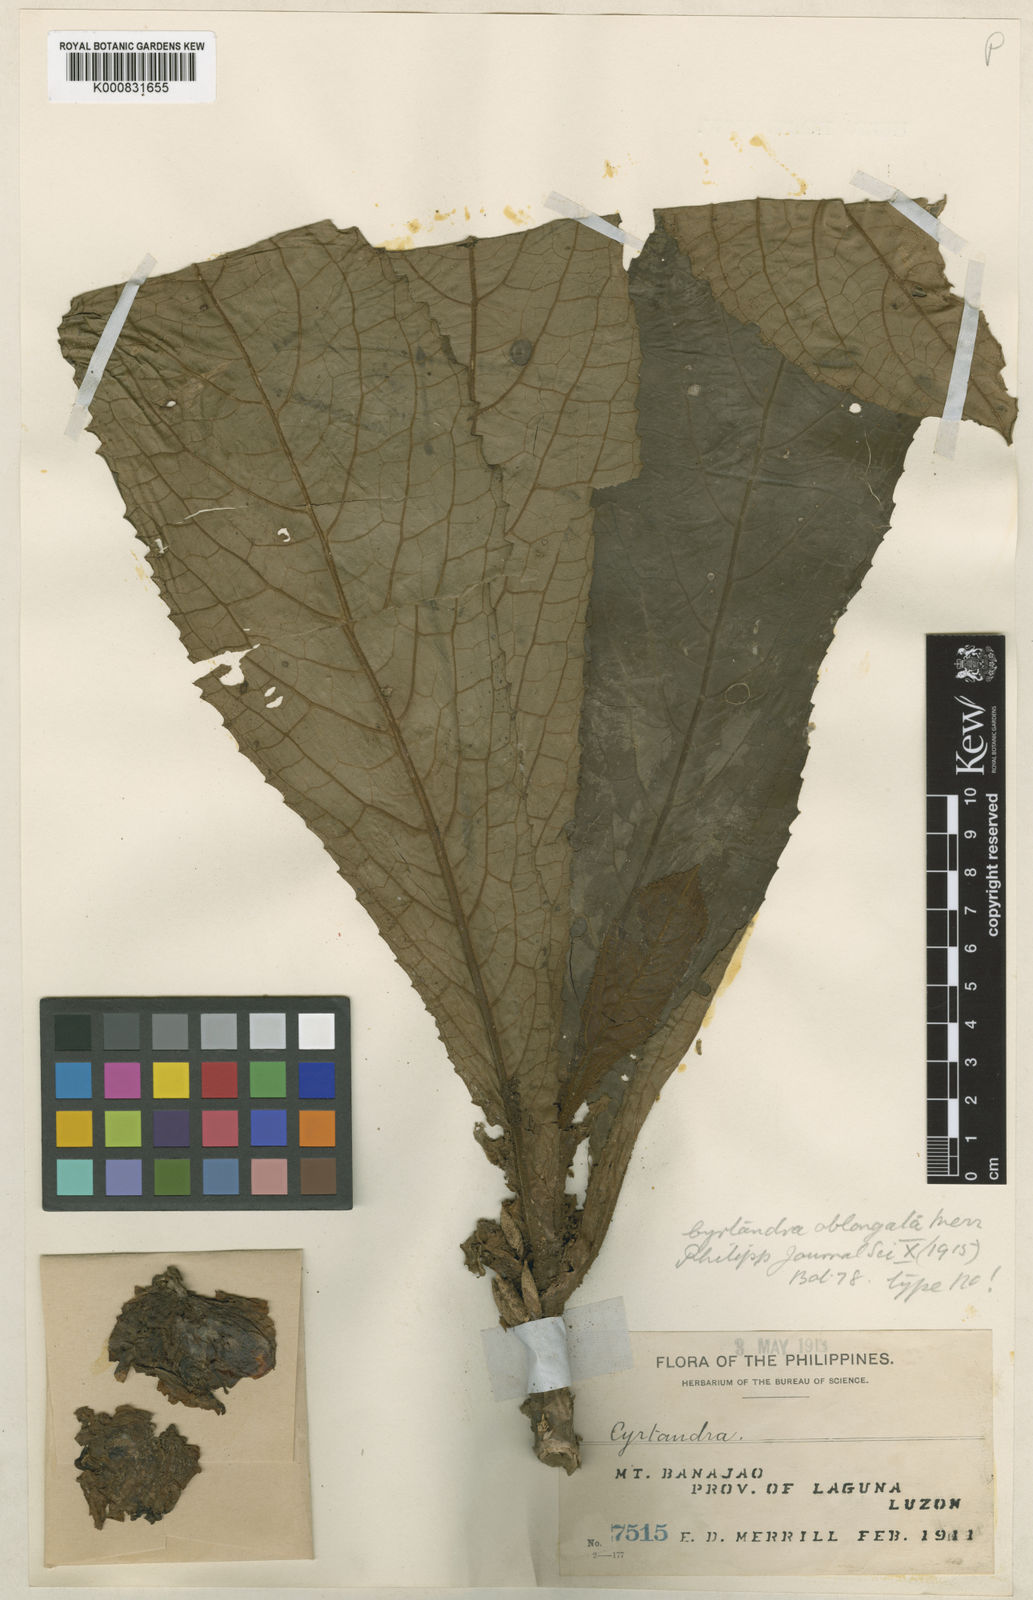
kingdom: Plantae
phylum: Tracheophyta
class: Magnoliopsida
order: Lamiales
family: Gesneriaceae
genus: Cyrtandra
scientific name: Cyrtandra oblongata
